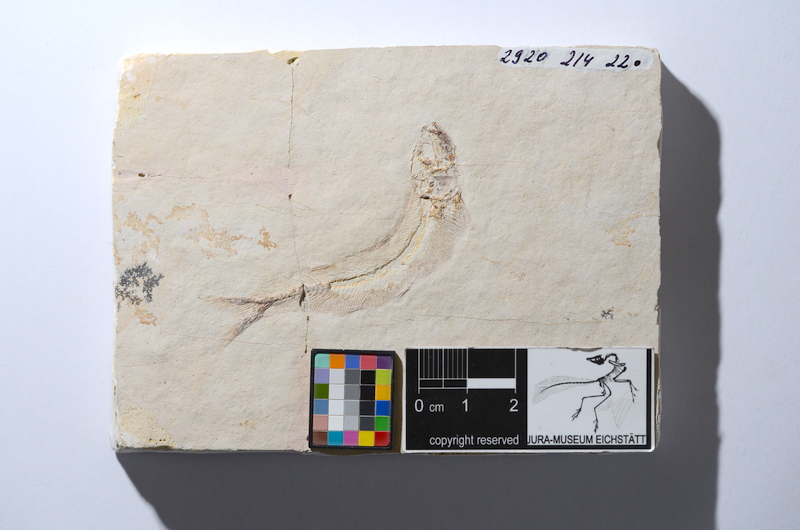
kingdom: Animalia
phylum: Chordata
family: Allothrissopidae
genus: Allothrissops
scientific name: Allothrissops mesogaster
